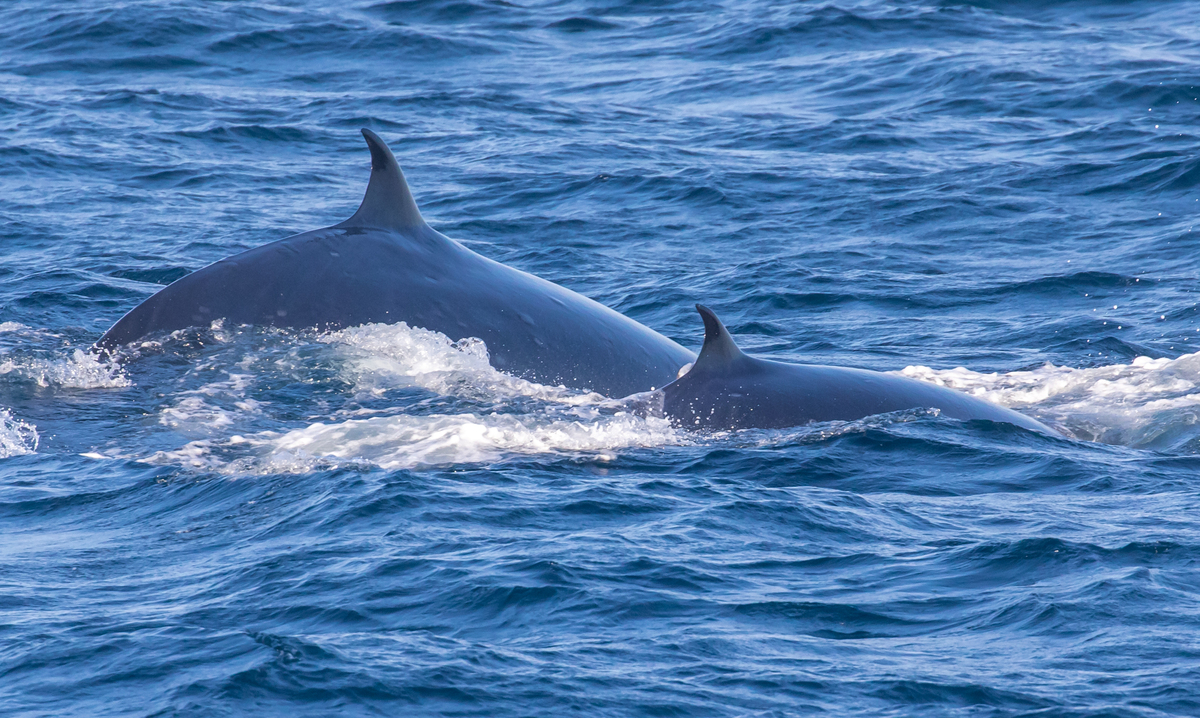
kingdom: Animalia
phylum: Chordata
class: Mammalia
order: Cetacea
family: Balaenopteridae
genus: Balaenoptera
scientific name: Balaenoptera edeni
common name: Bryde's whale
